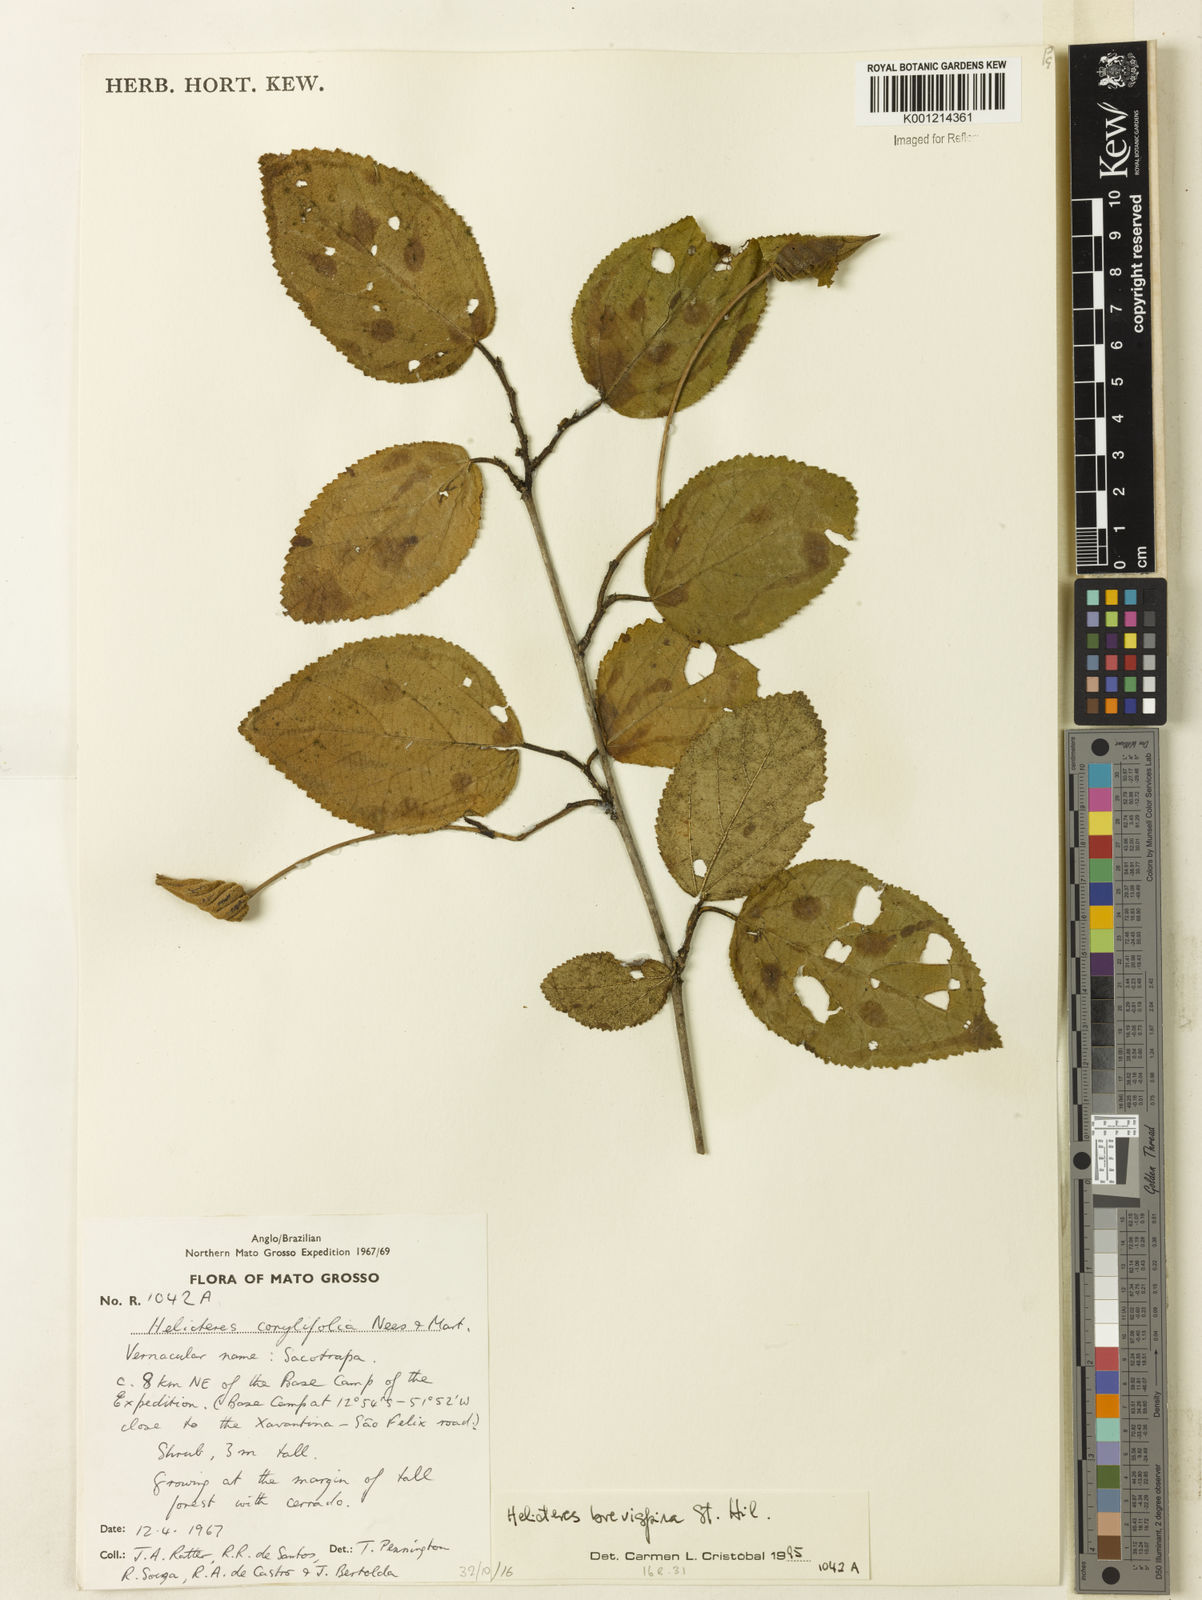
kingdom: Plantae
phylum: Tracheophyta
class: Magnoliopsida
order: Malvales
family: Malvaceae
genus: Helicteres
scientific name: Helicteres
